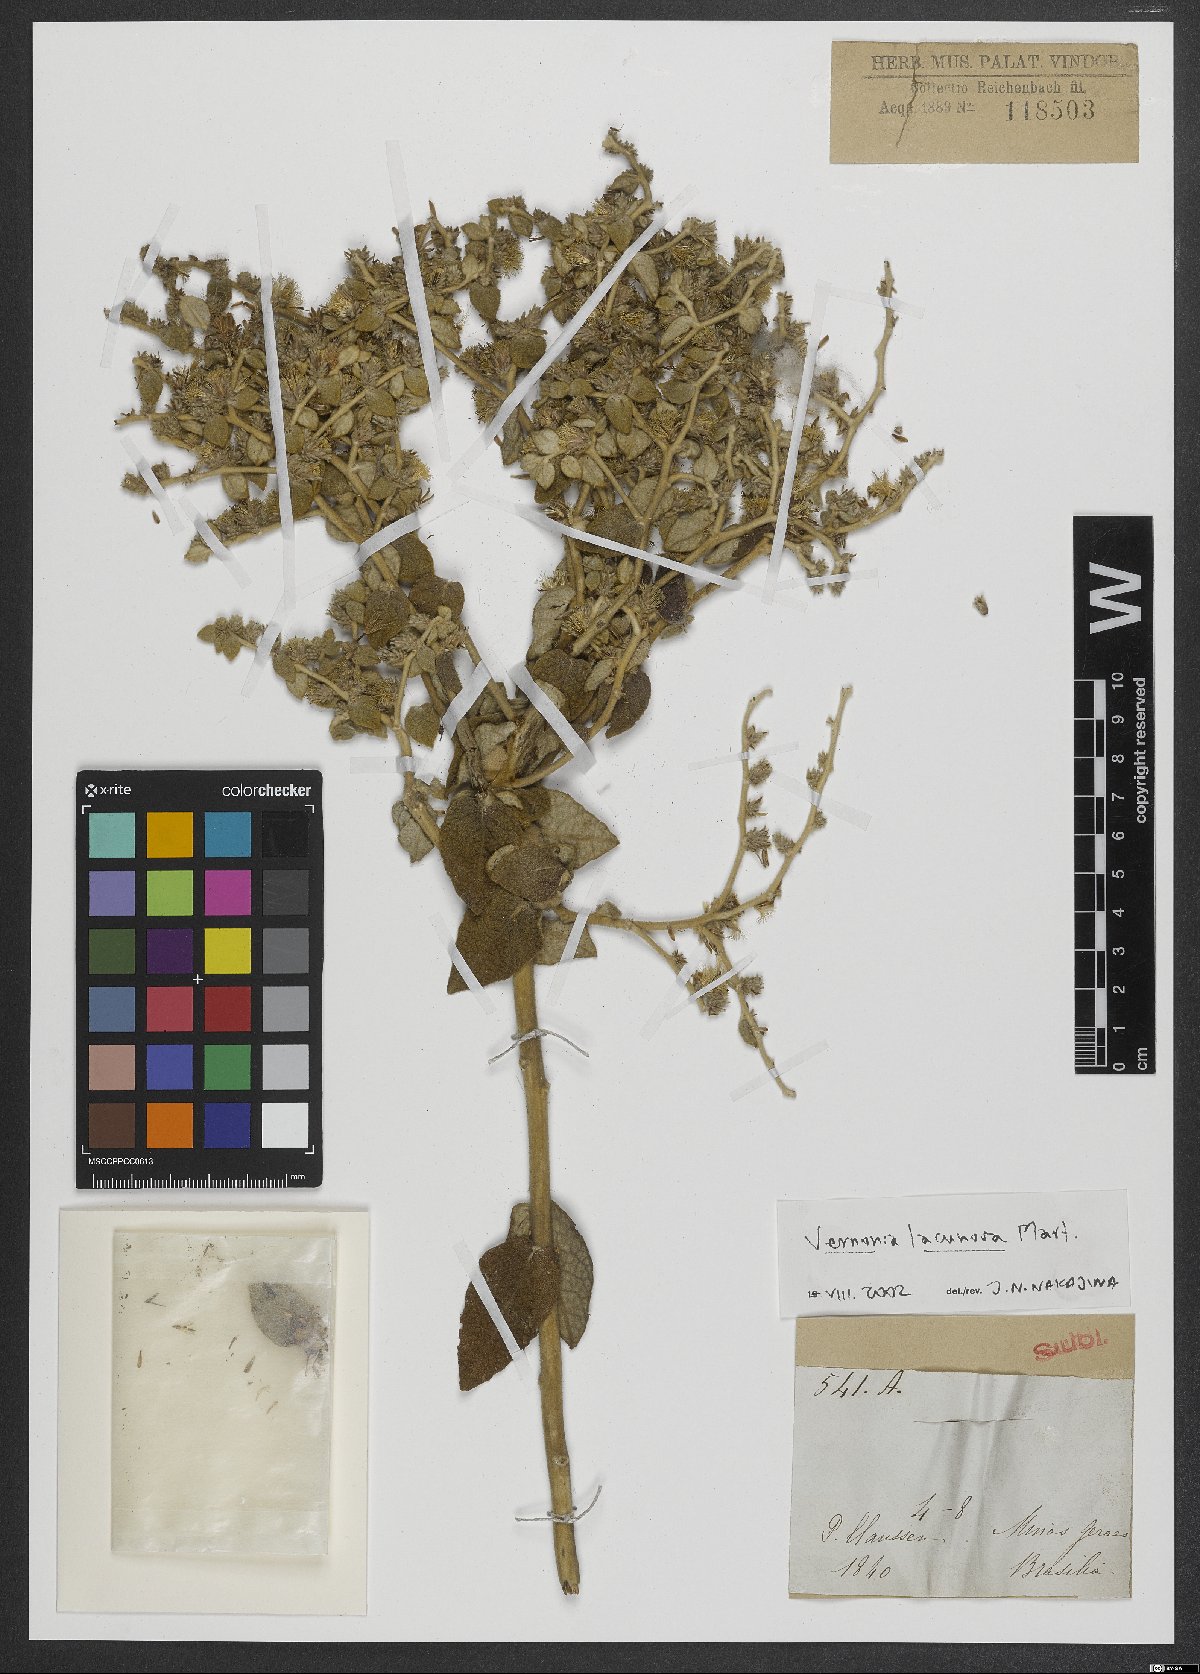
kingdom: Plantae
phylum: Tracheophyta
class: Magnoliopsida
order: Asterales
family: Asteraceae
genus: Lessingianthus
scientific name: Lessingianthus lacunosus
